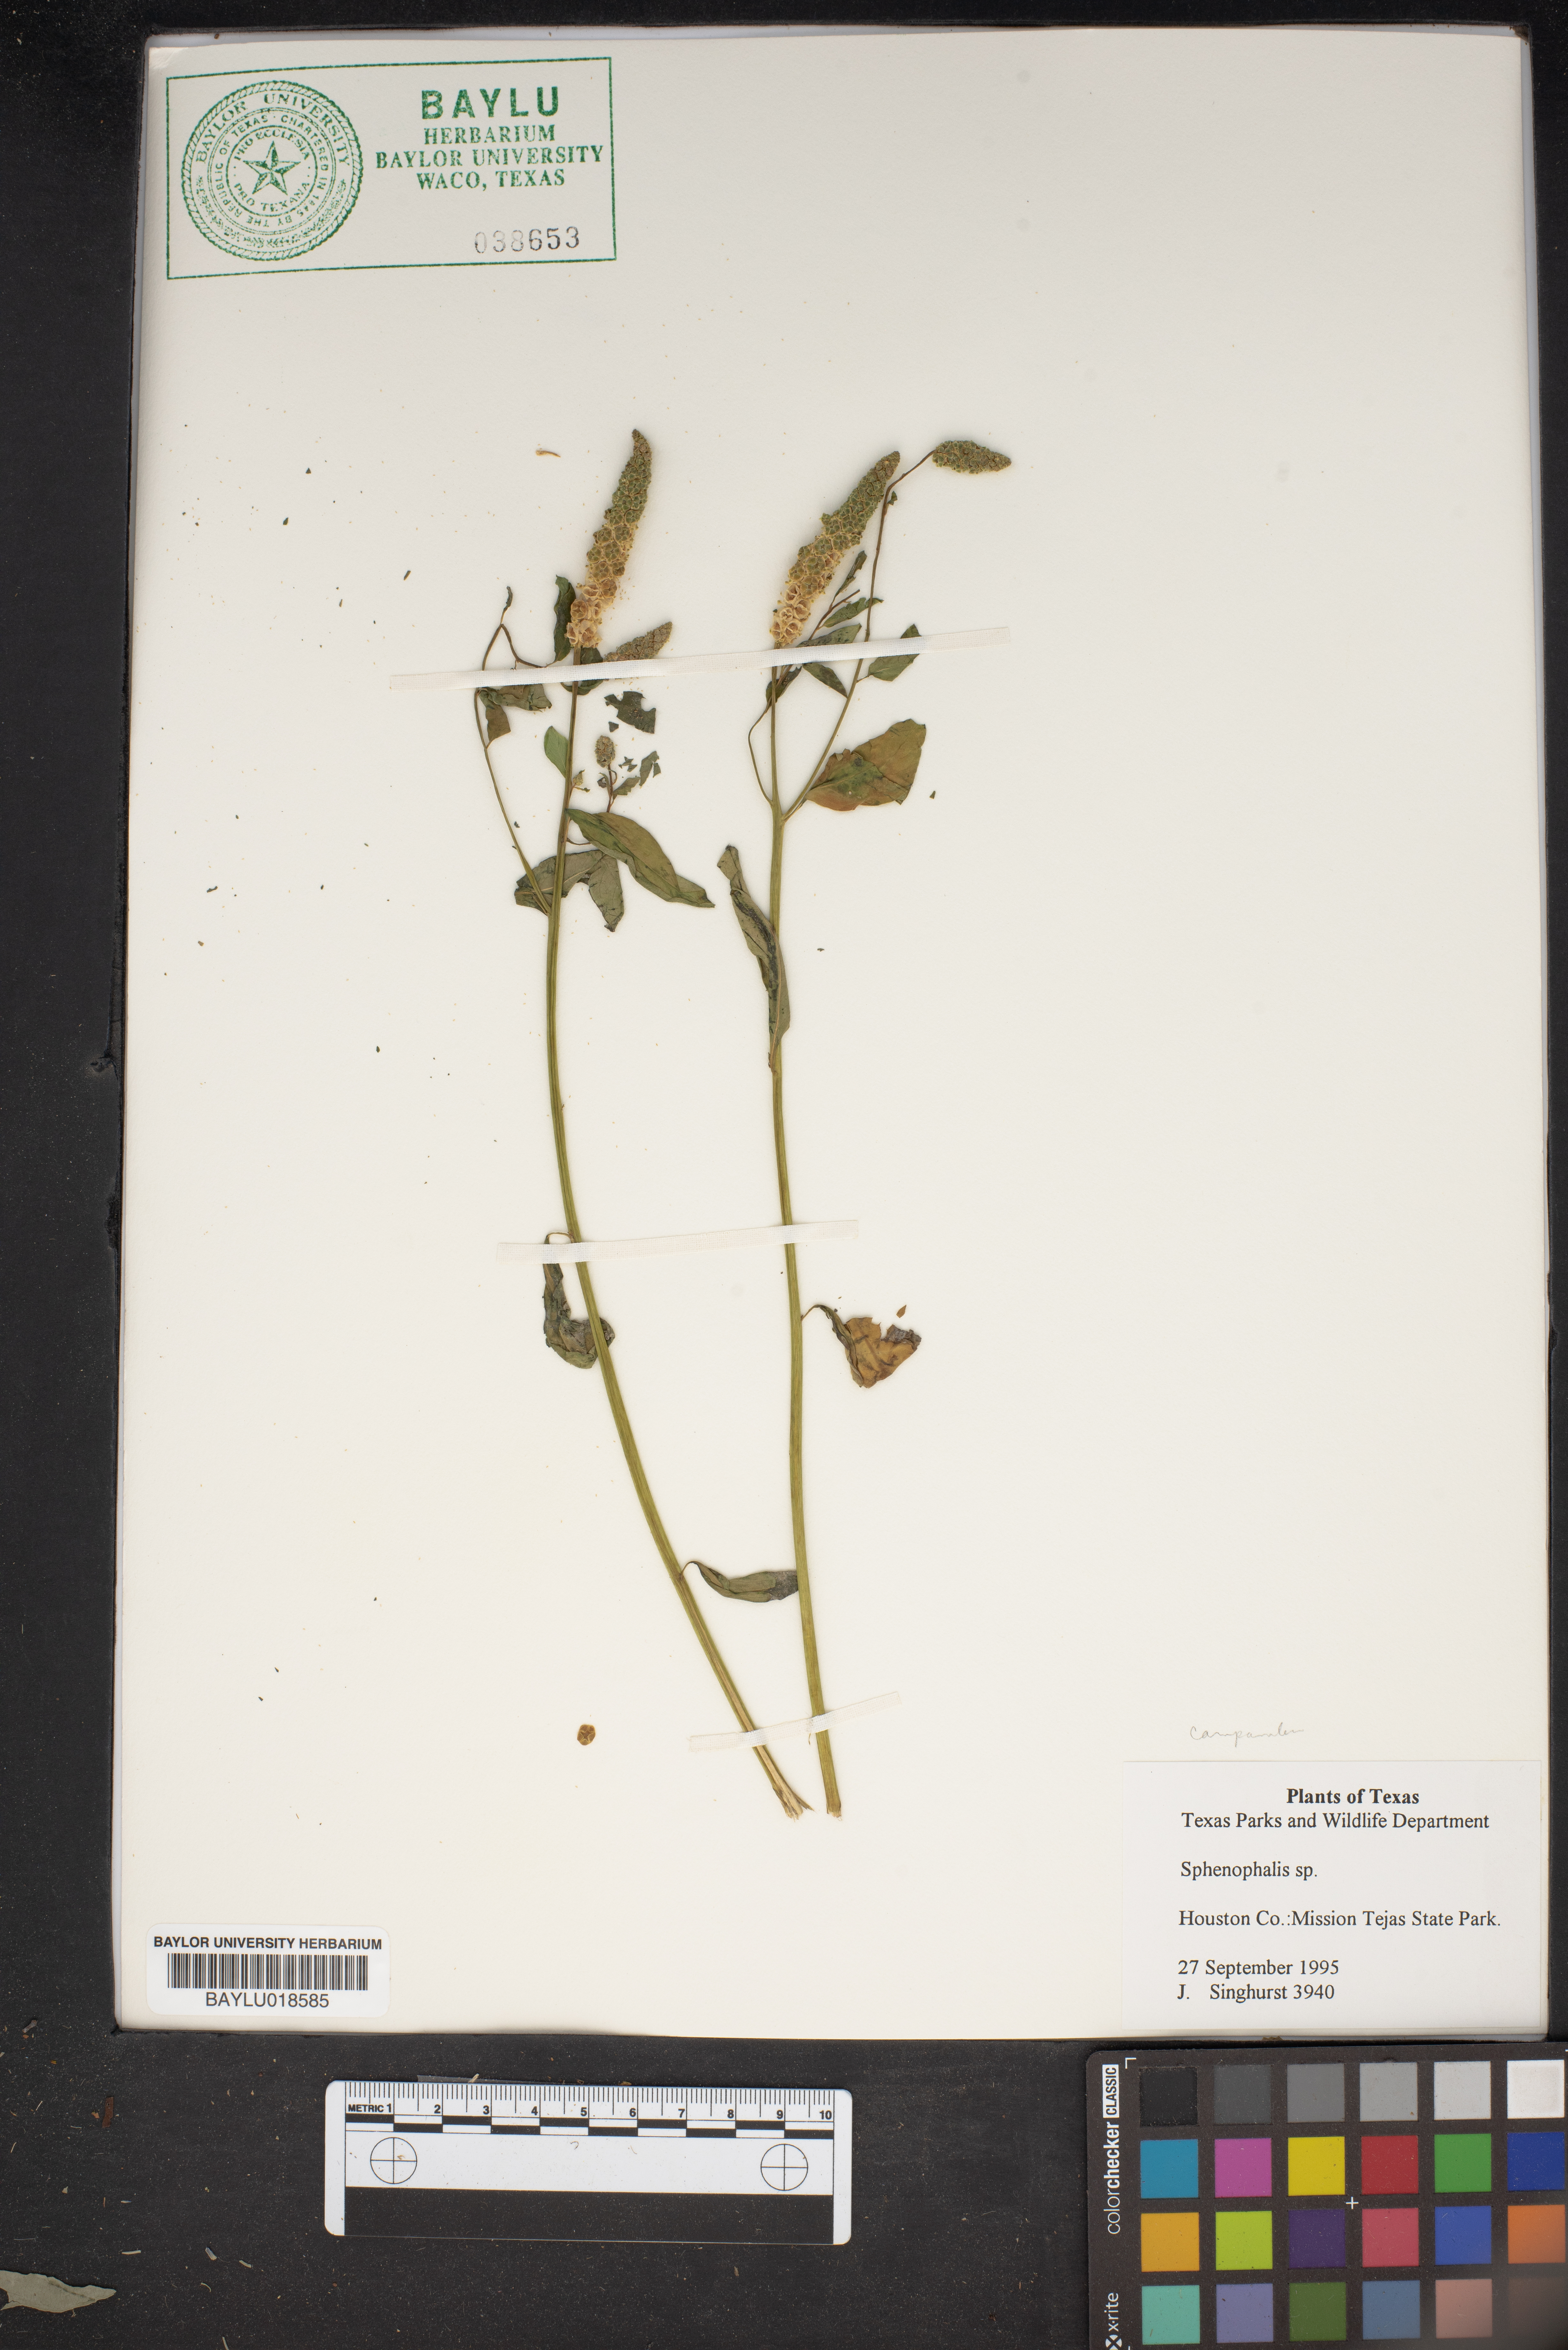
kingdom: Plantae
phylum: Tracheophyta
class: Liliopsida
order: Poales
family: Poaceae
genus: Sphenopholis
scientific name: Sphenopholis
